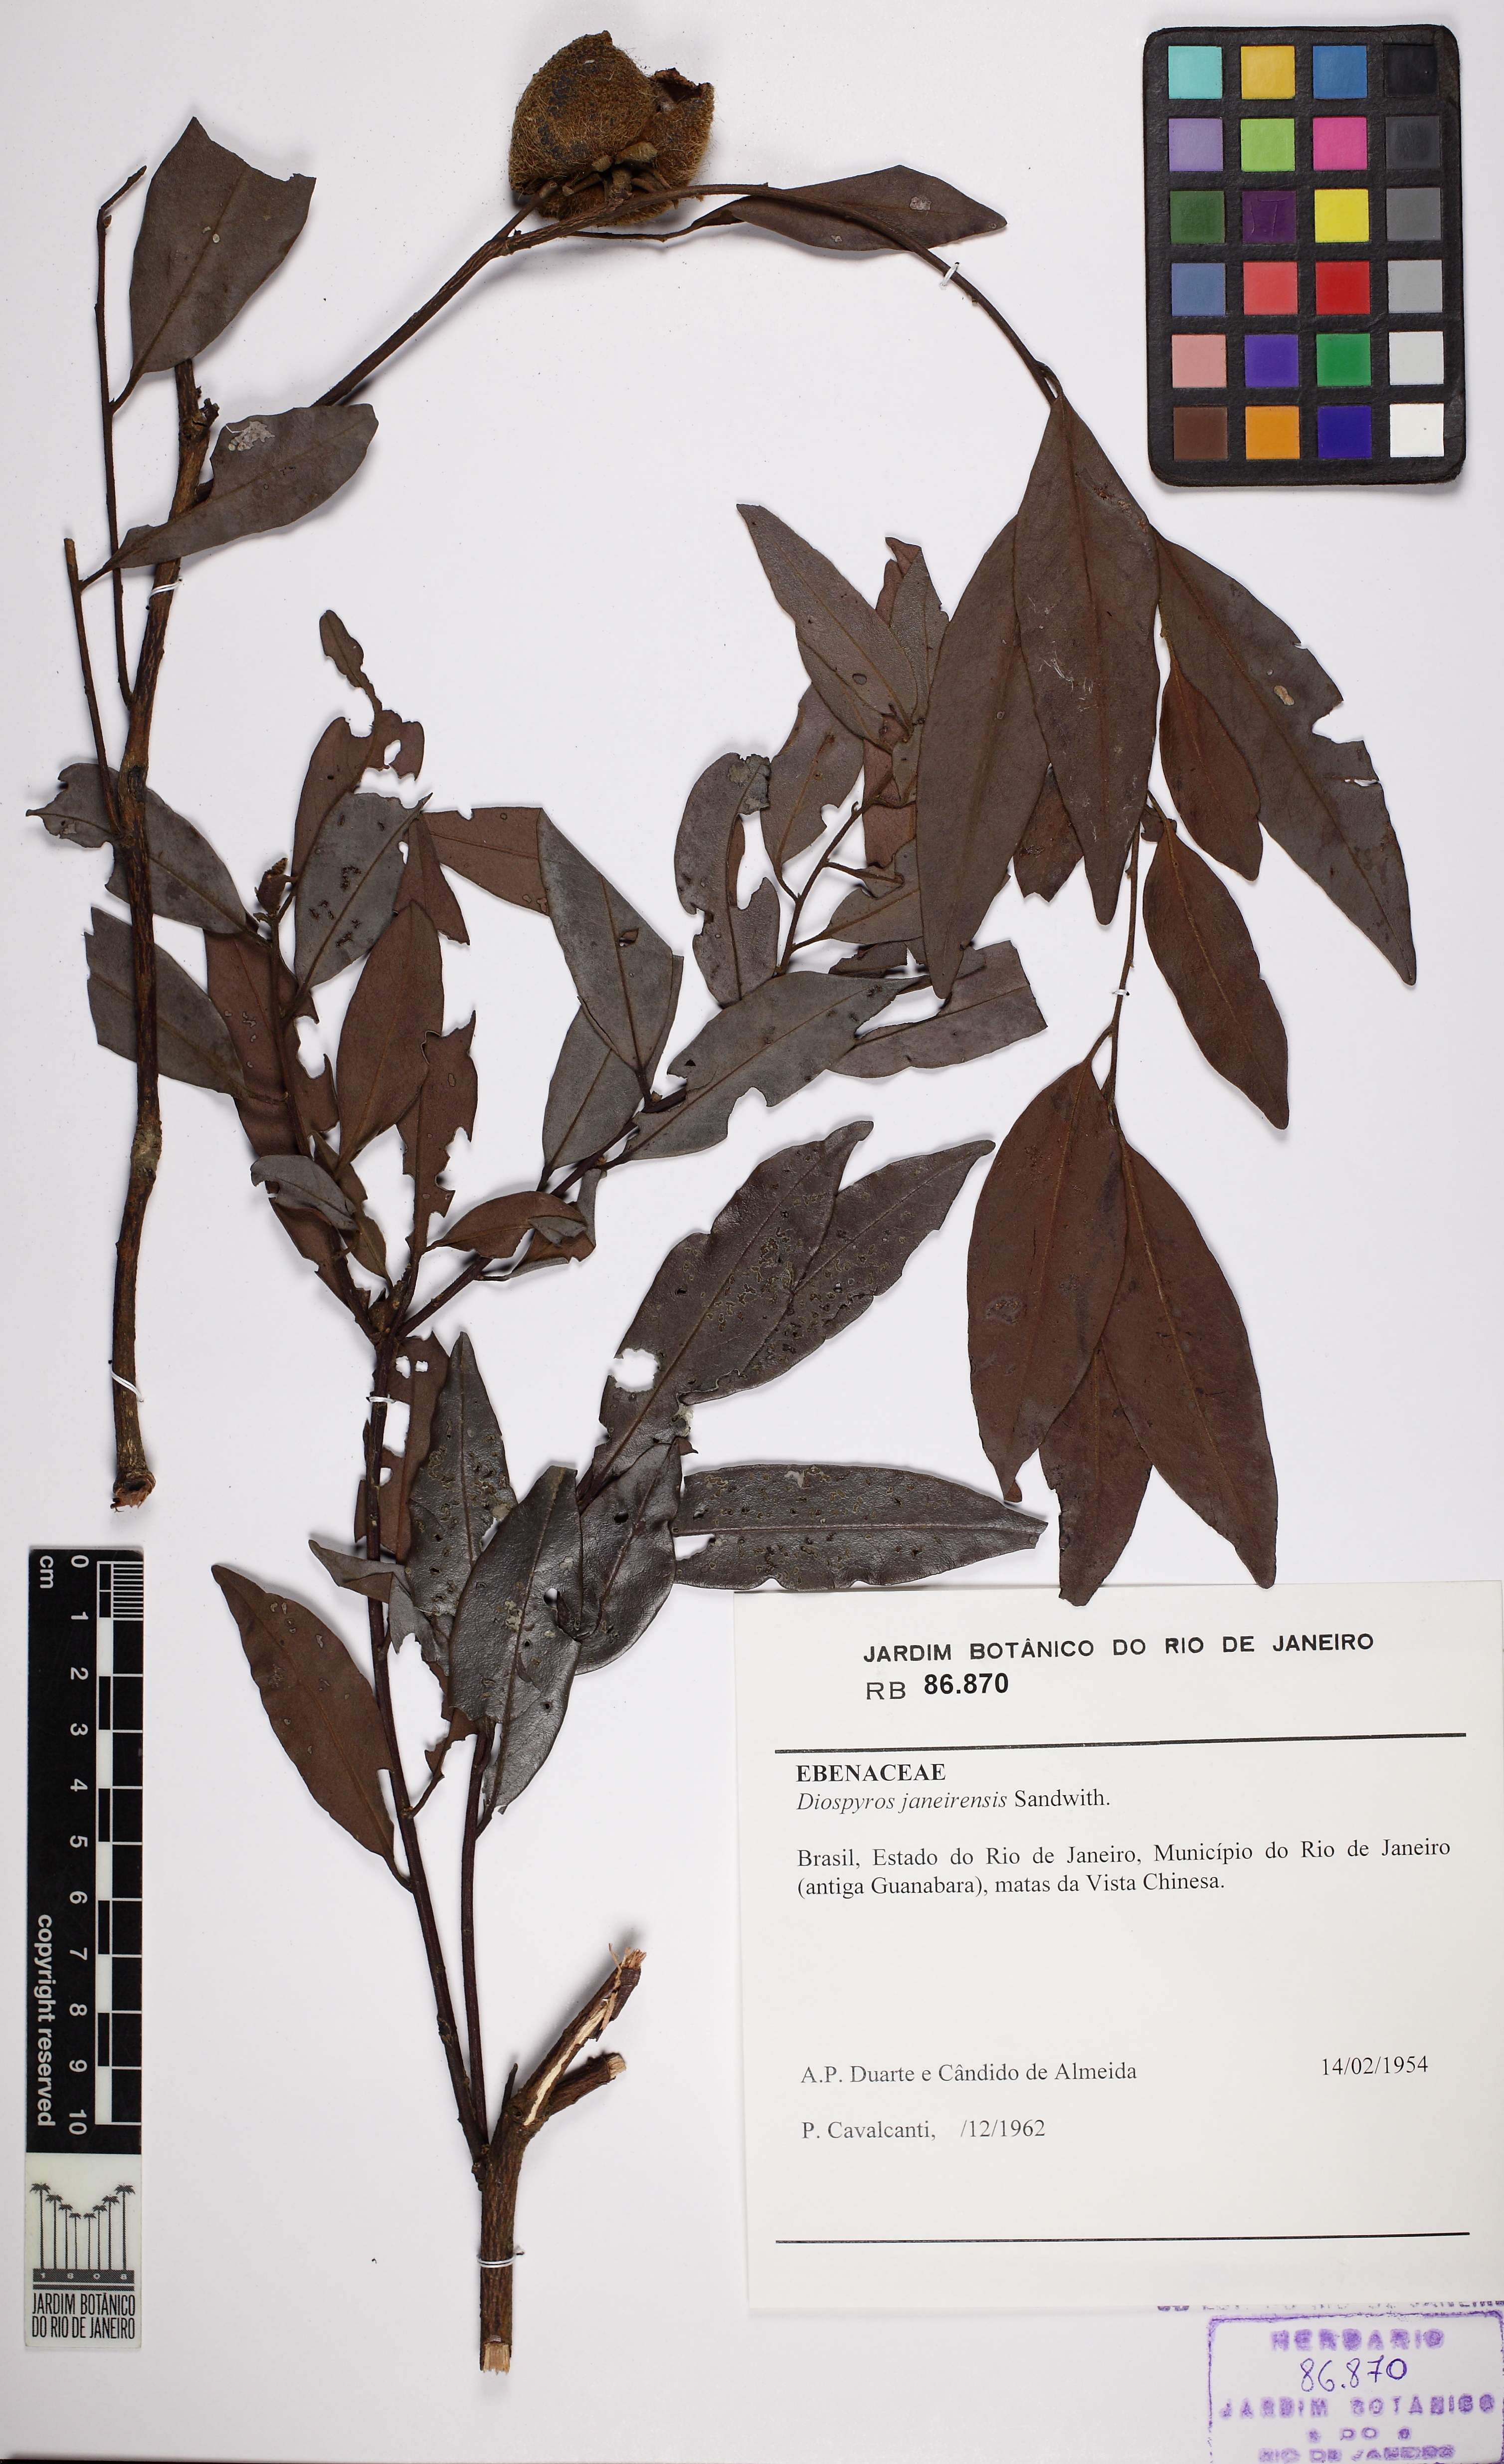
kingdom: Plantae
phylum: Tracheophyta
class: Magnoliopsida
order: Ericales
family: Ebenaceae
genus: Diospyros
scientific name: Diospyros apeibacarpos
